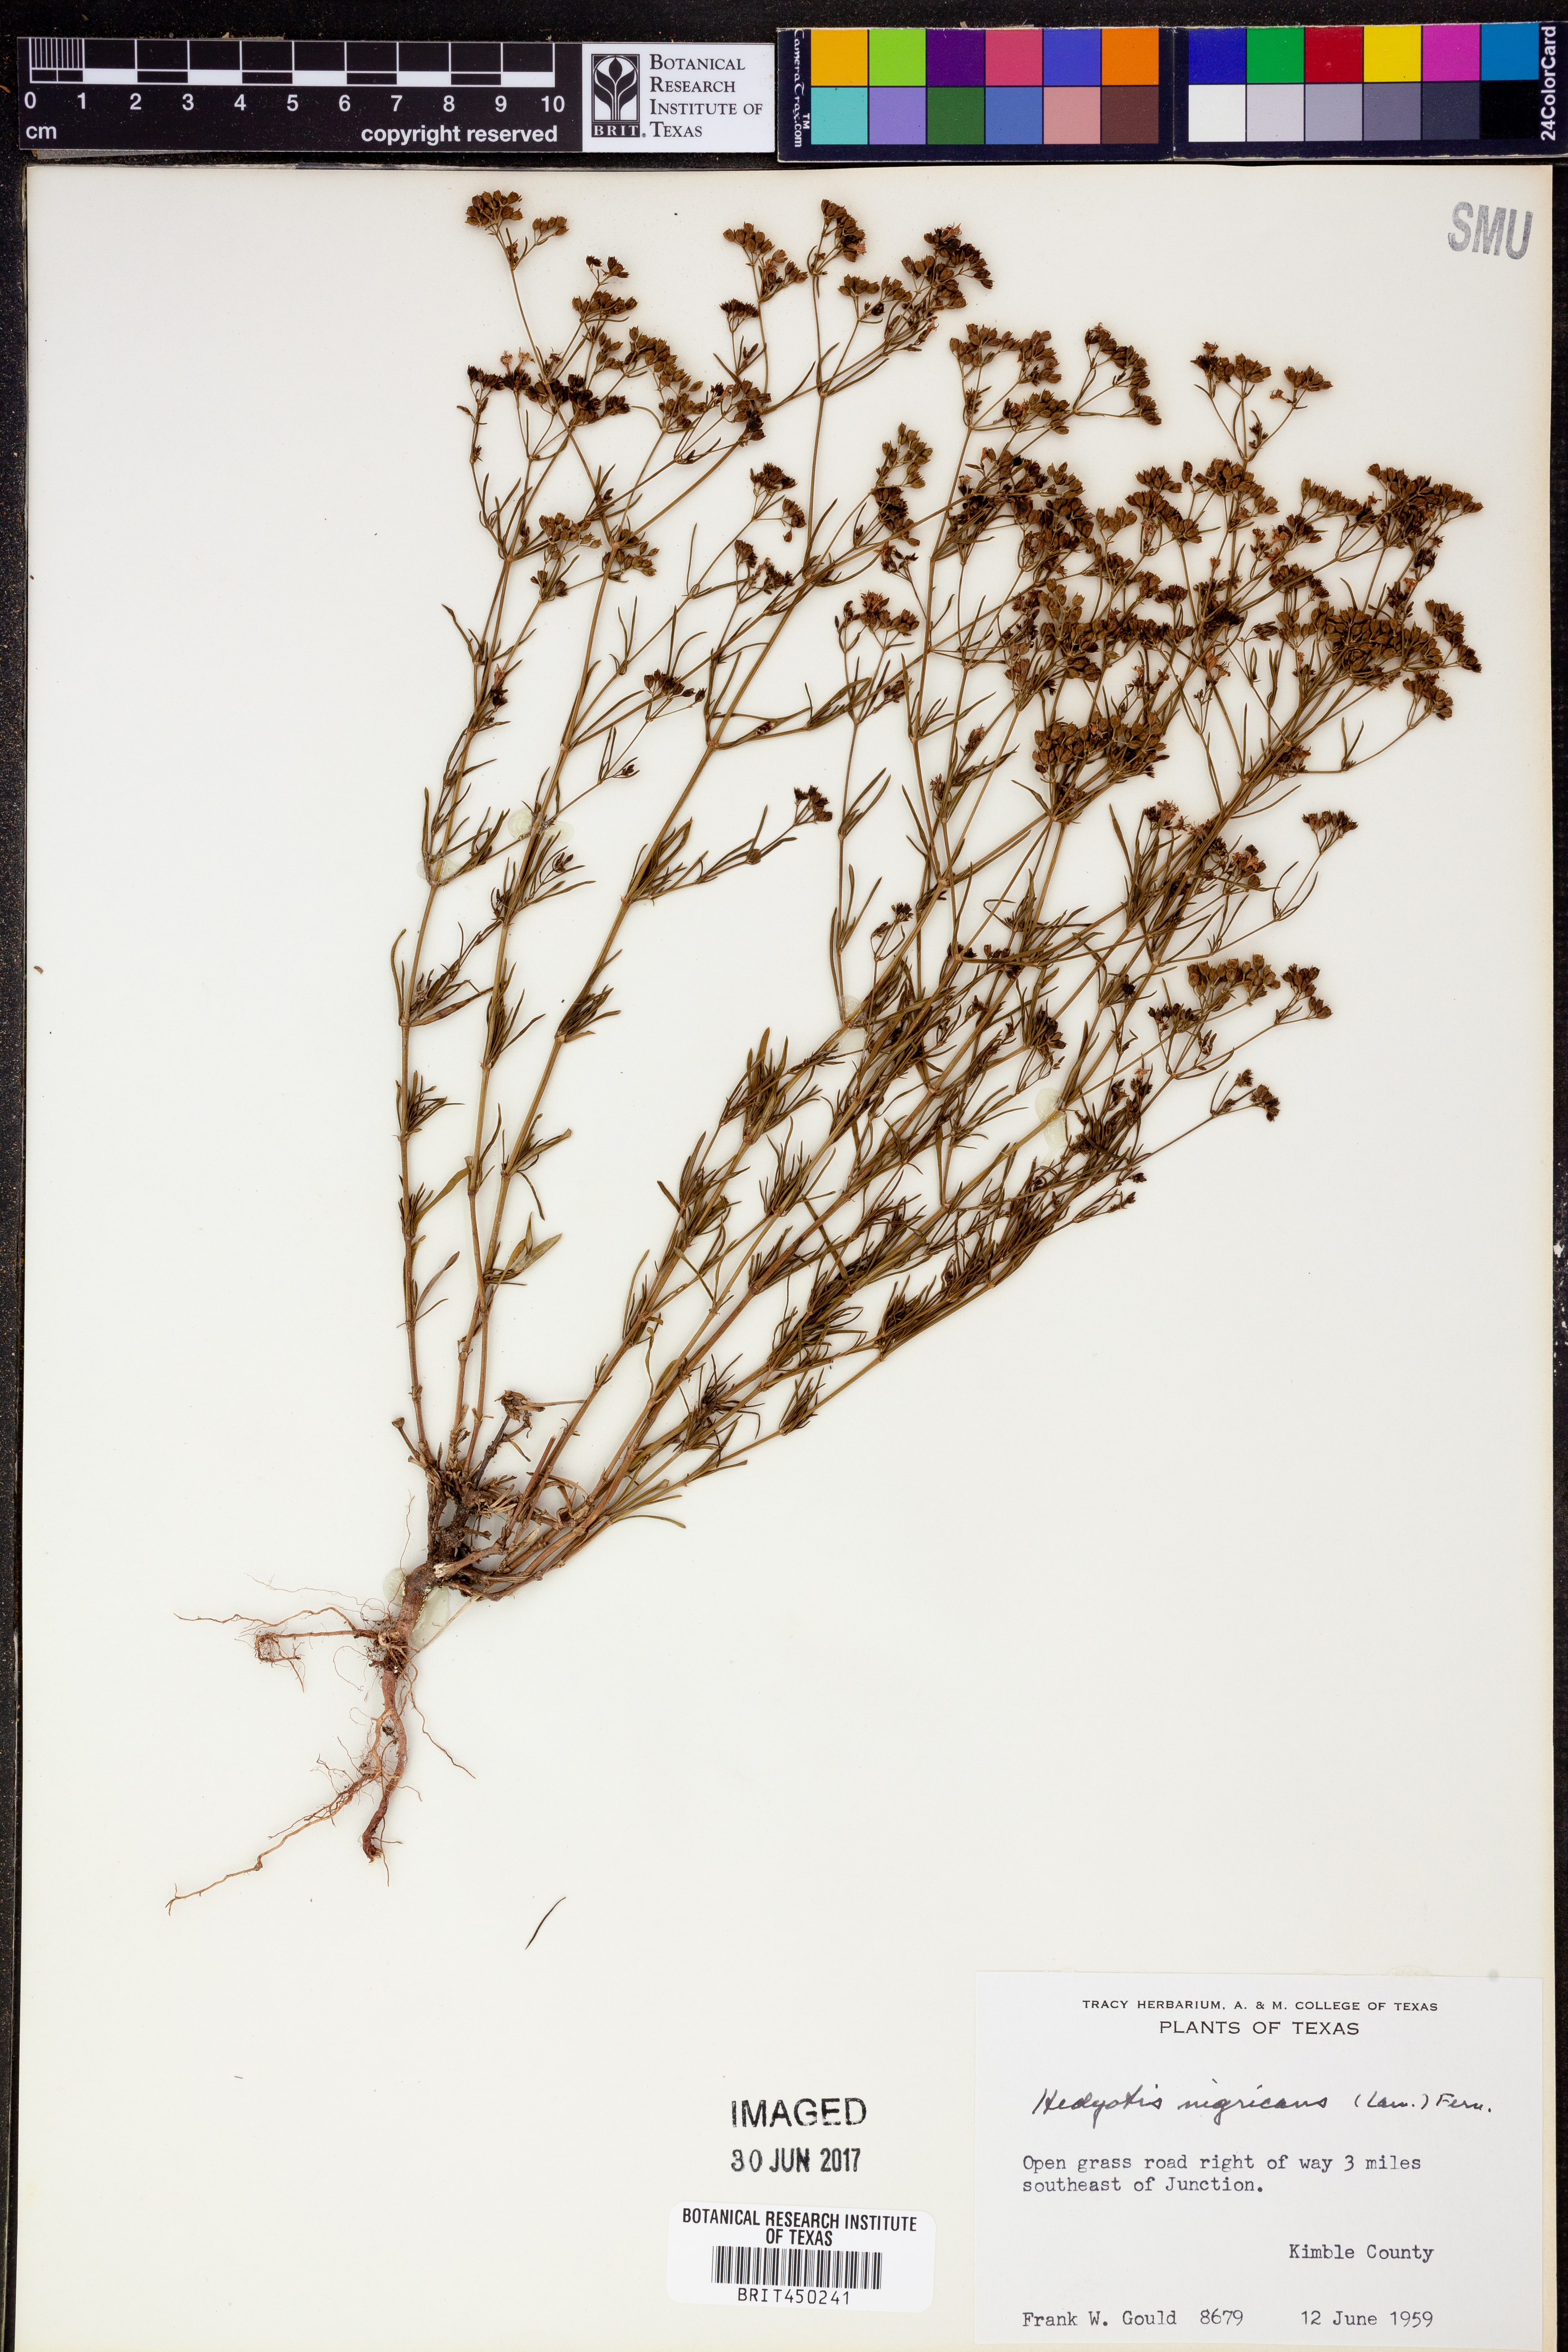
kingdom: Plantae
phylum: Tracheophyta
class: Magnoliopsida
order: Gentianales
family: Rubiaceae
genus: Stenaria
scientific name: Stenaria nigricans
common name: Diamondflowers
